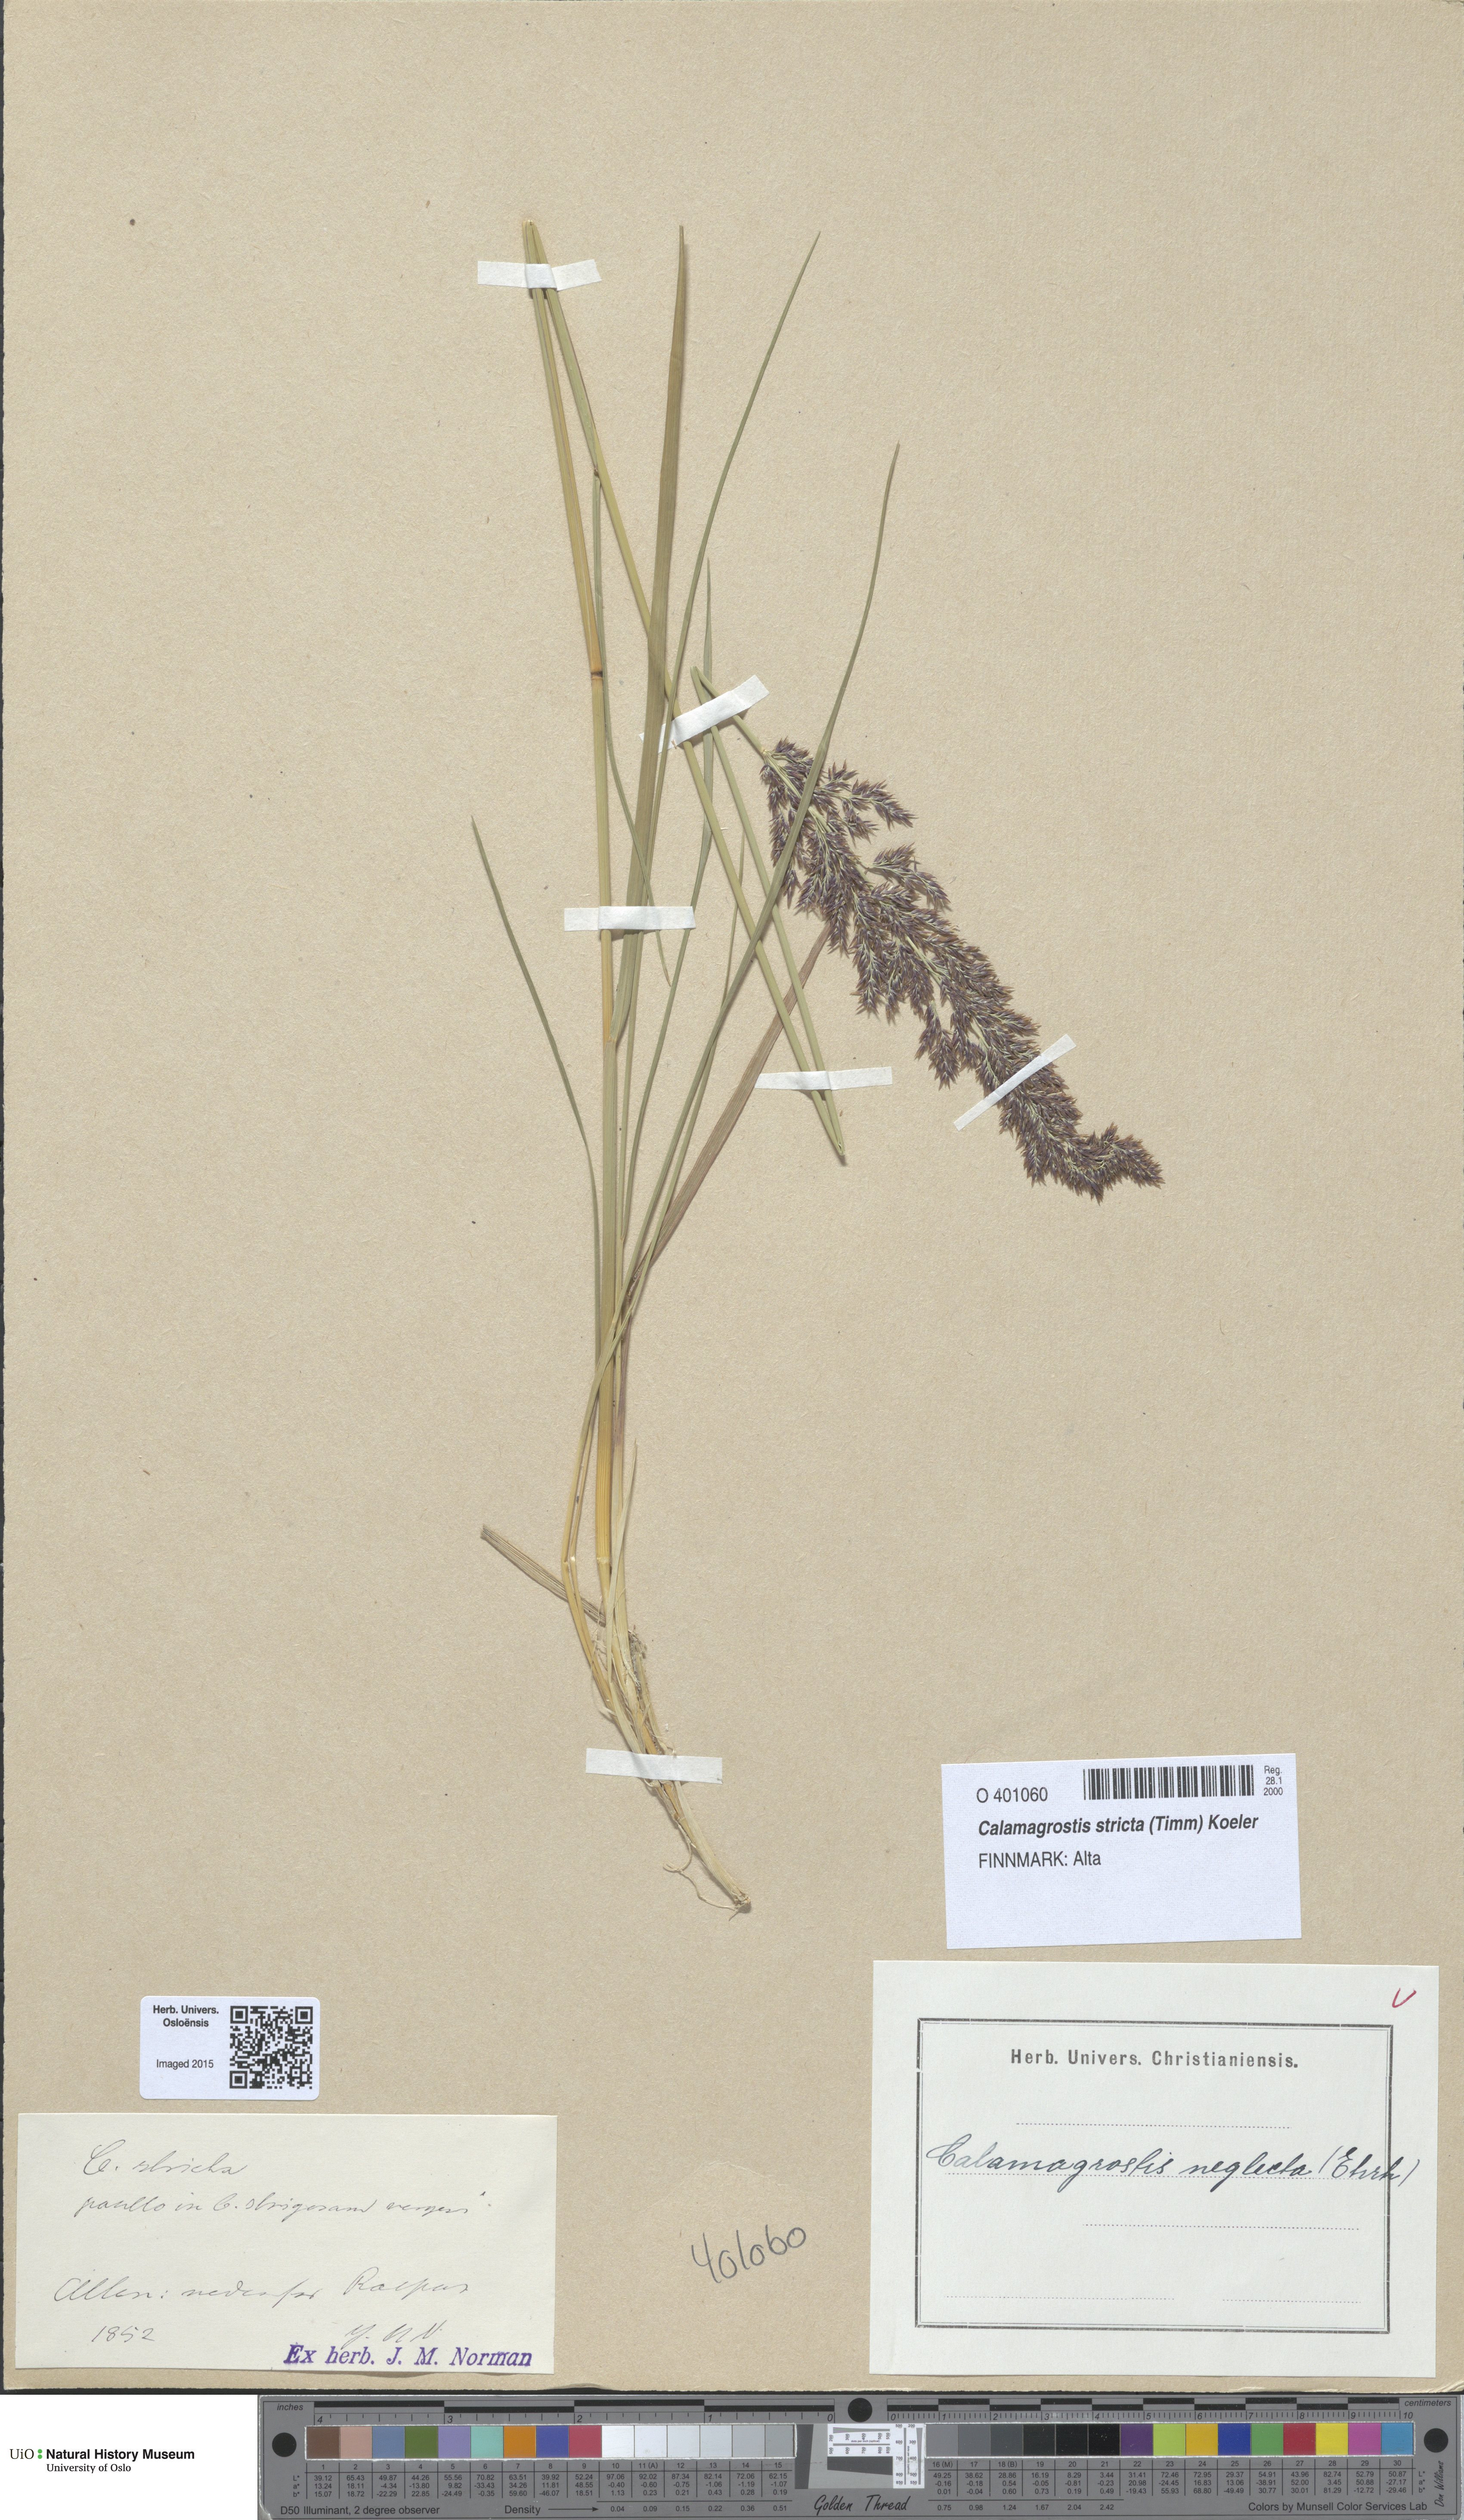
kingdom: Plantae
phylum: Tracheophyta
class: Liliopsida
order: Poales
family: Poaceae
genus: Achnatherum
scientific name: Achnatherum calamagrostis
